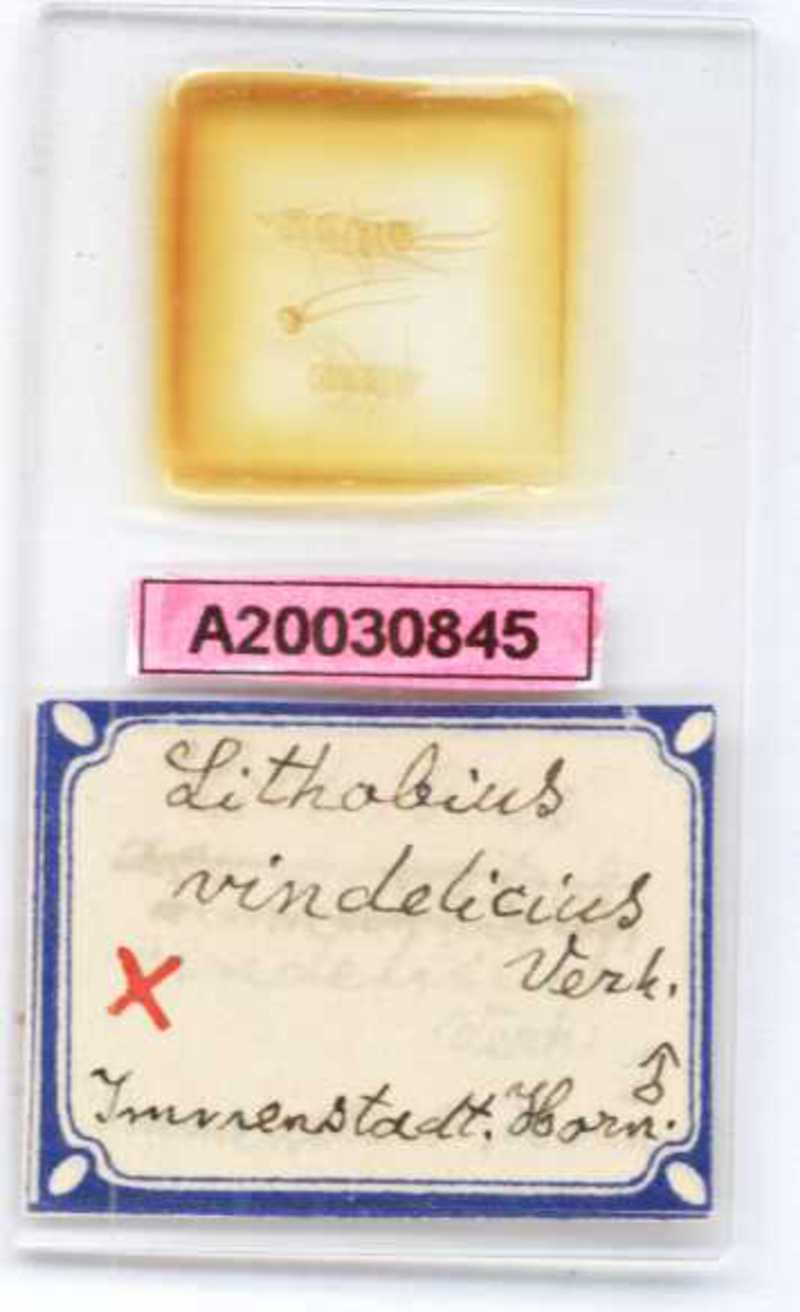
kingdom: Animalia
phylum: Arthropoda
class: Chilopoda
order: Lithobiomorpha
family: Lithobiidae
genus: Lithobius
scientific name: Lithobius subtilis
